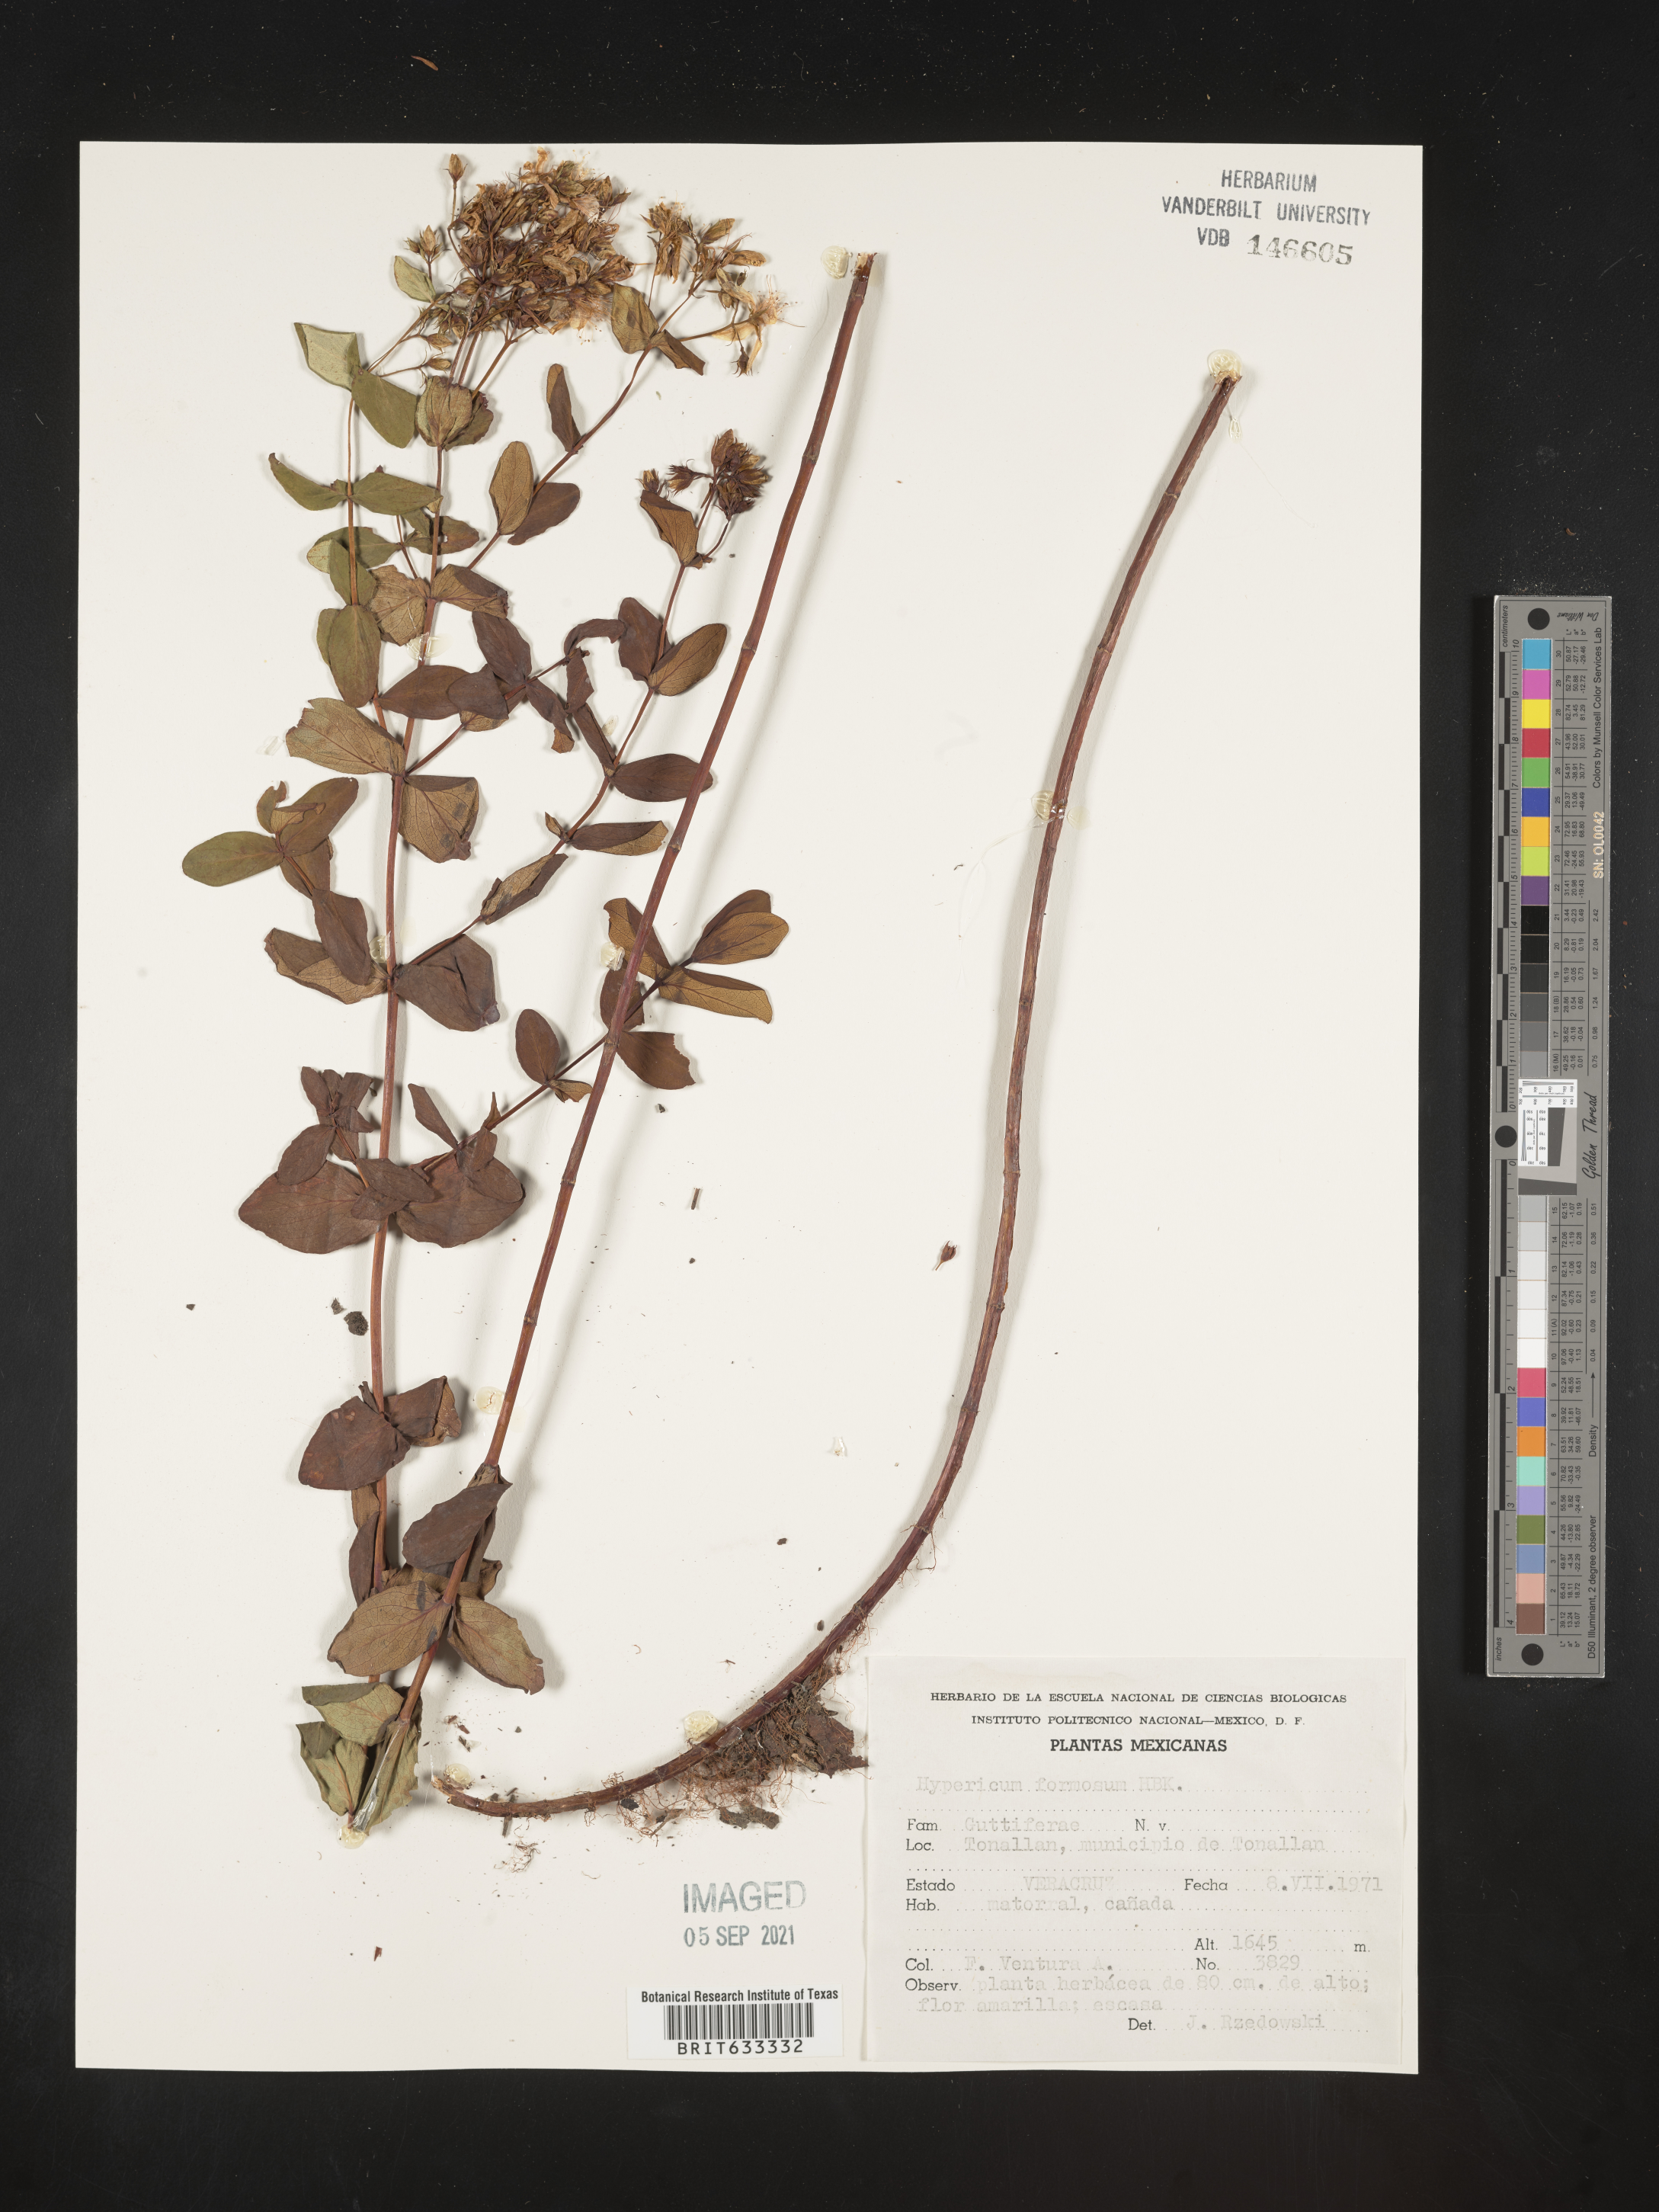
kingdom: Plantae
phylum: Tracheophyta
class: Magnoliopsida
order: Malpighiales
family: Hypericaceae
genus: Hypericum
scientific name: Hypericum
